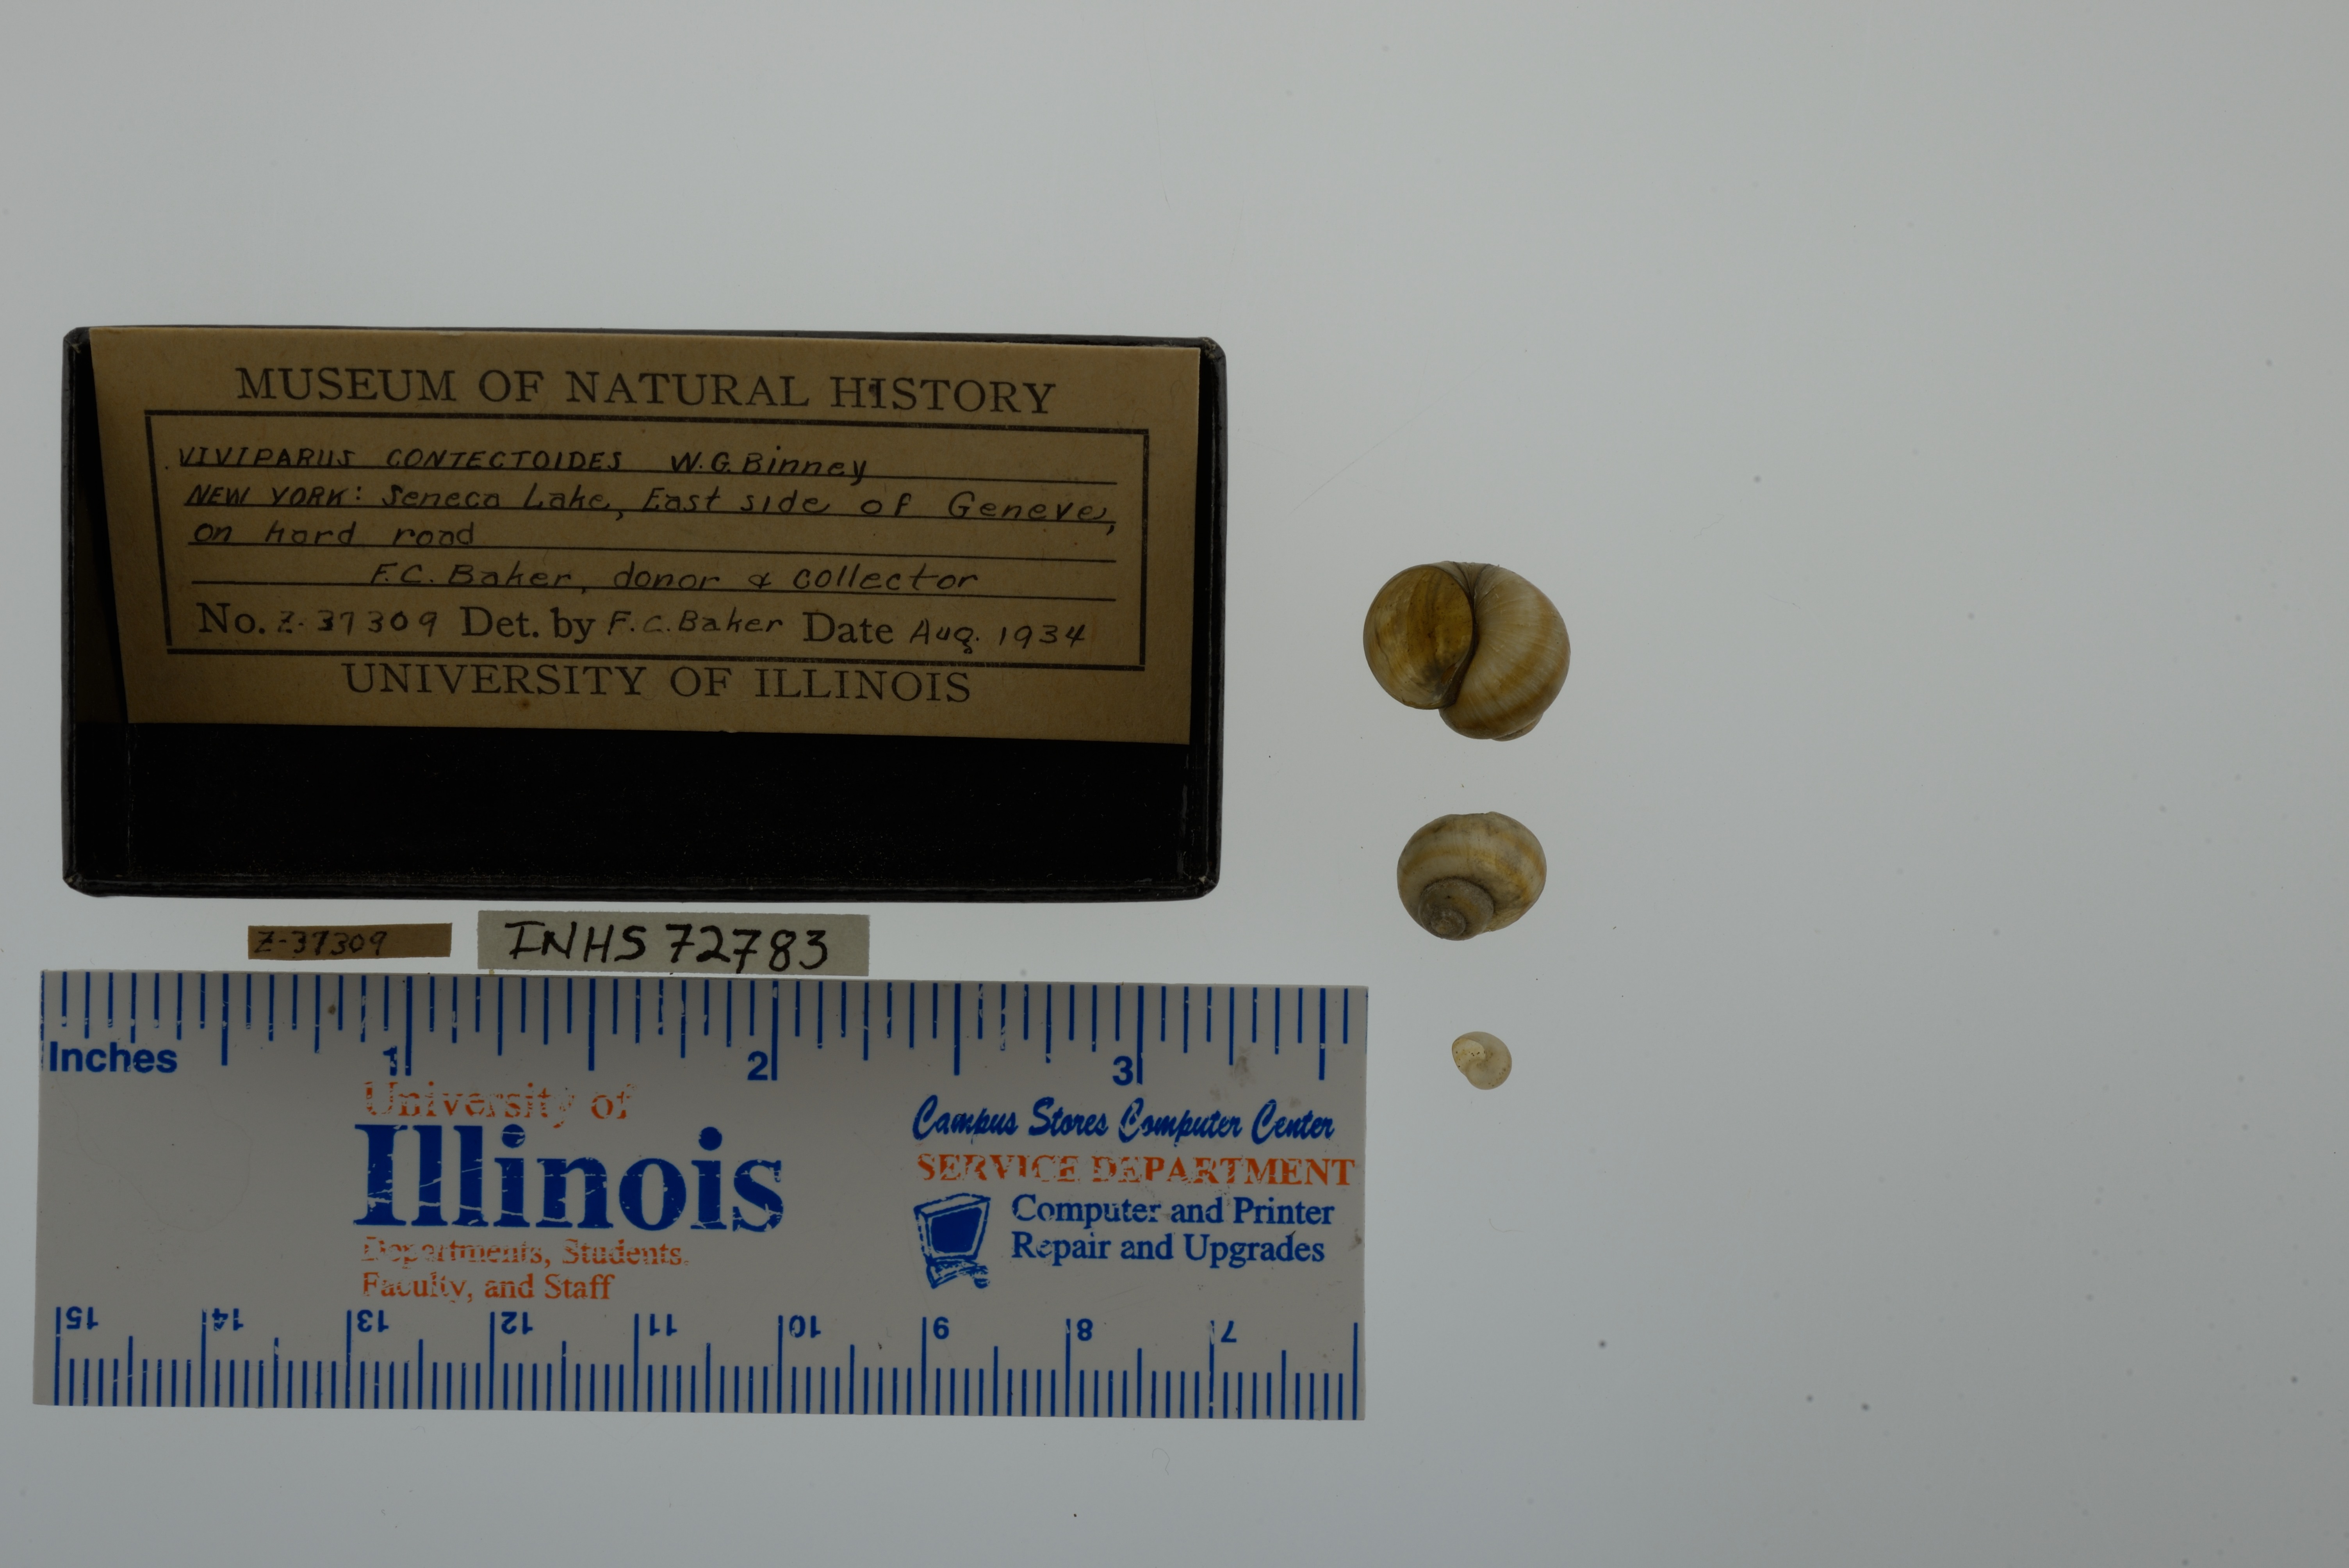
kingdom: Animalia
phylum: Mollusca
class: Gastropoda
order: Architaenioglossa
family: Viviparidae
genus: Callinina
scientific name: Callinina georgiana
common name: Banded mystery snail
